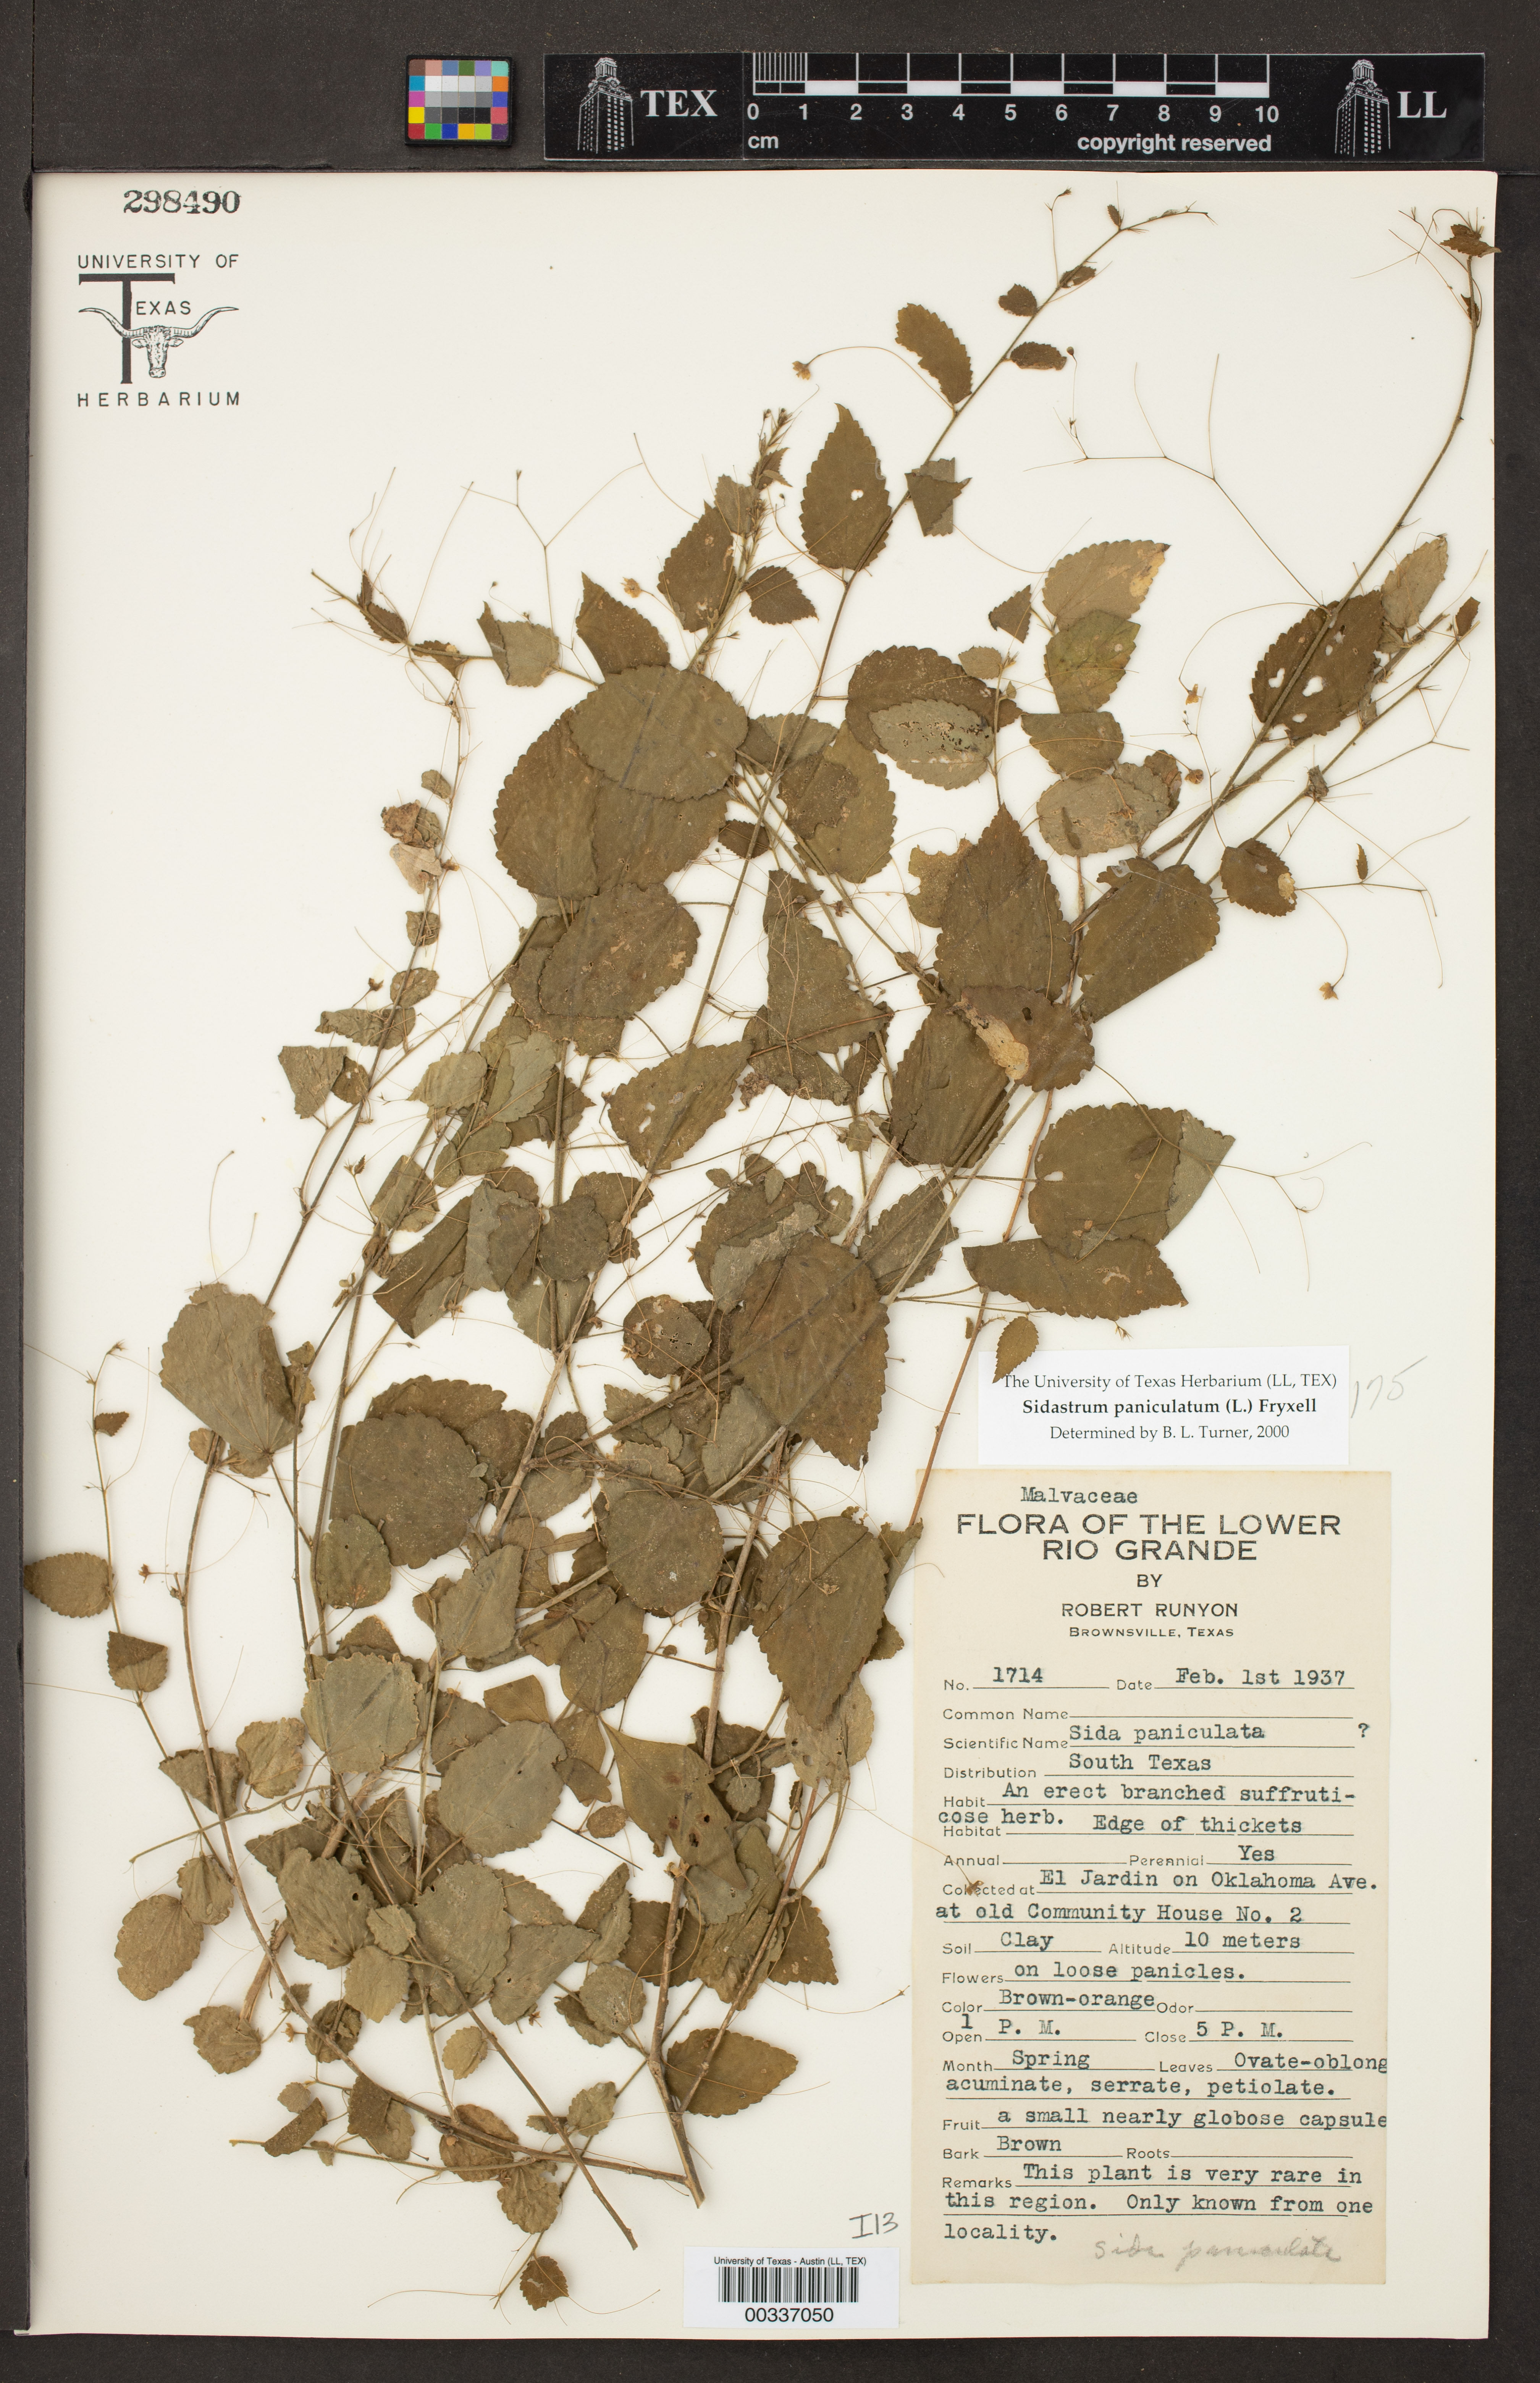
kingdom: Plantae
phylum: Tracheophyta
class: Magnoliopsida
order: Malvales
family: Malvaceae
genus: Sidastrum
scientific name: Sidastrum paniculatum
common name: Panicled sandmallow
